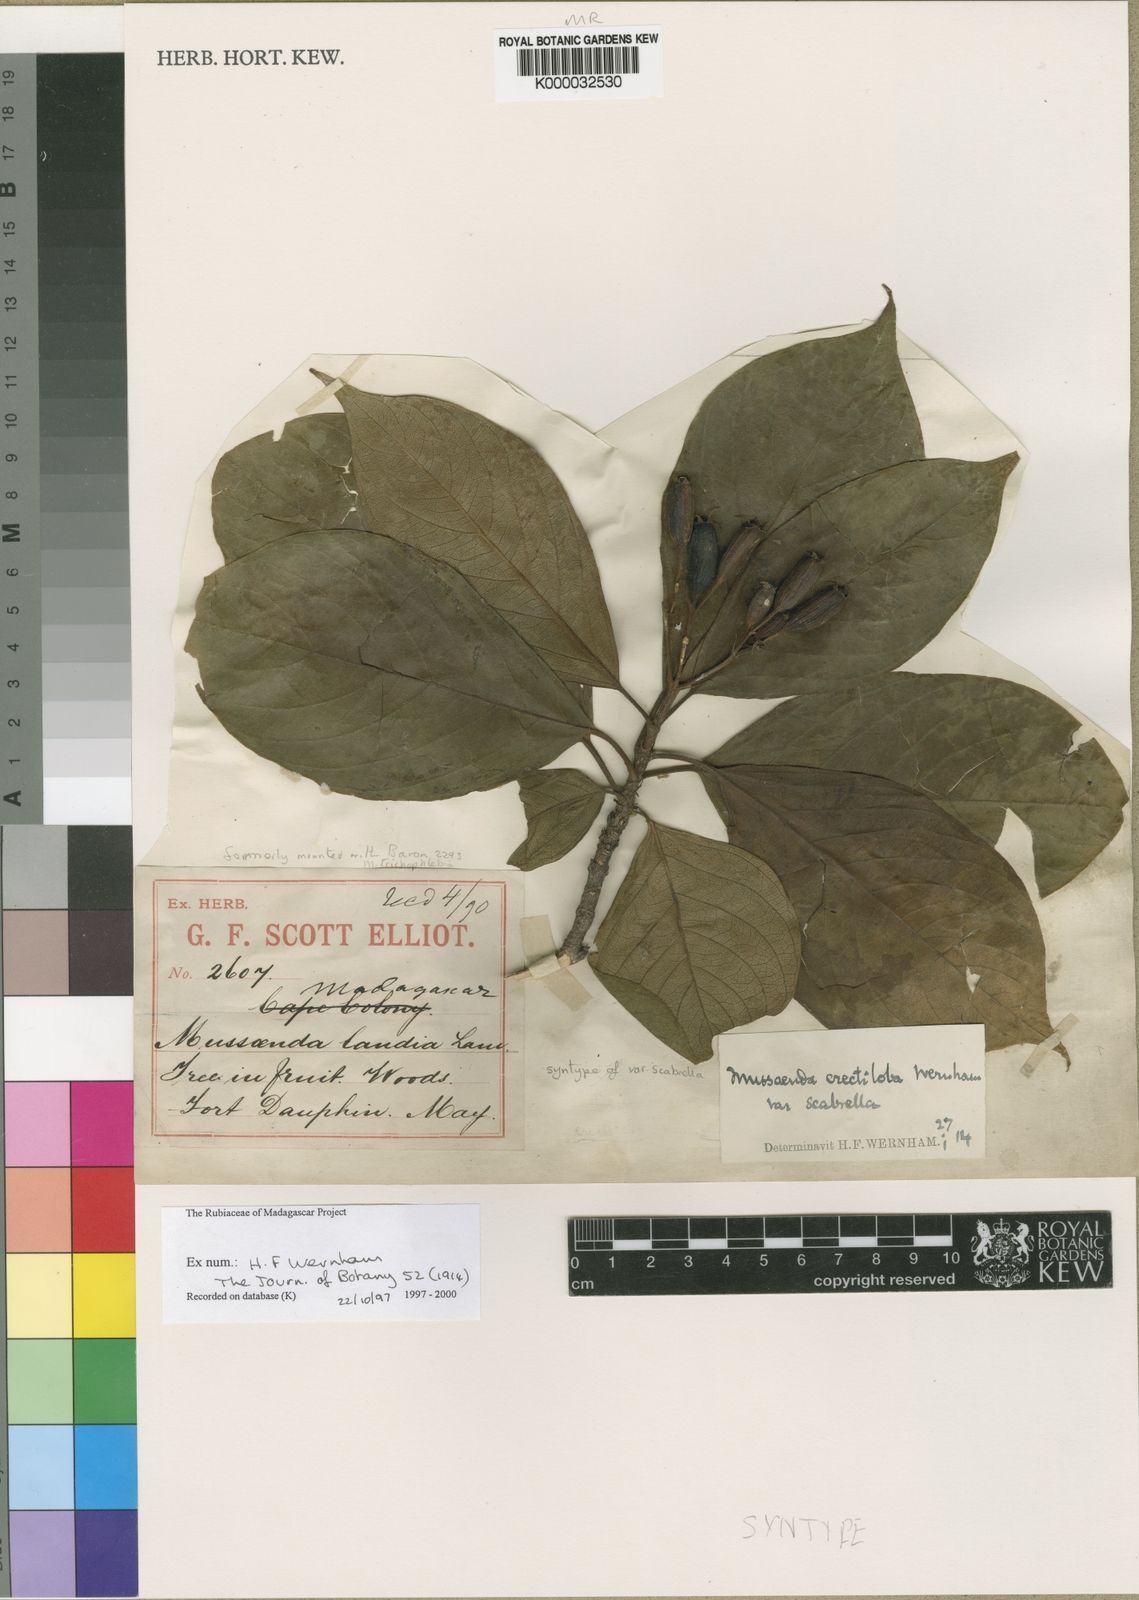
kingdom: Plantae
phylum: Tracheophyta
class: Magnoliopsida
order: Gentianales
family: Rubiaceae
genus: Bremeria
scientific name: Bremeria scabrella
